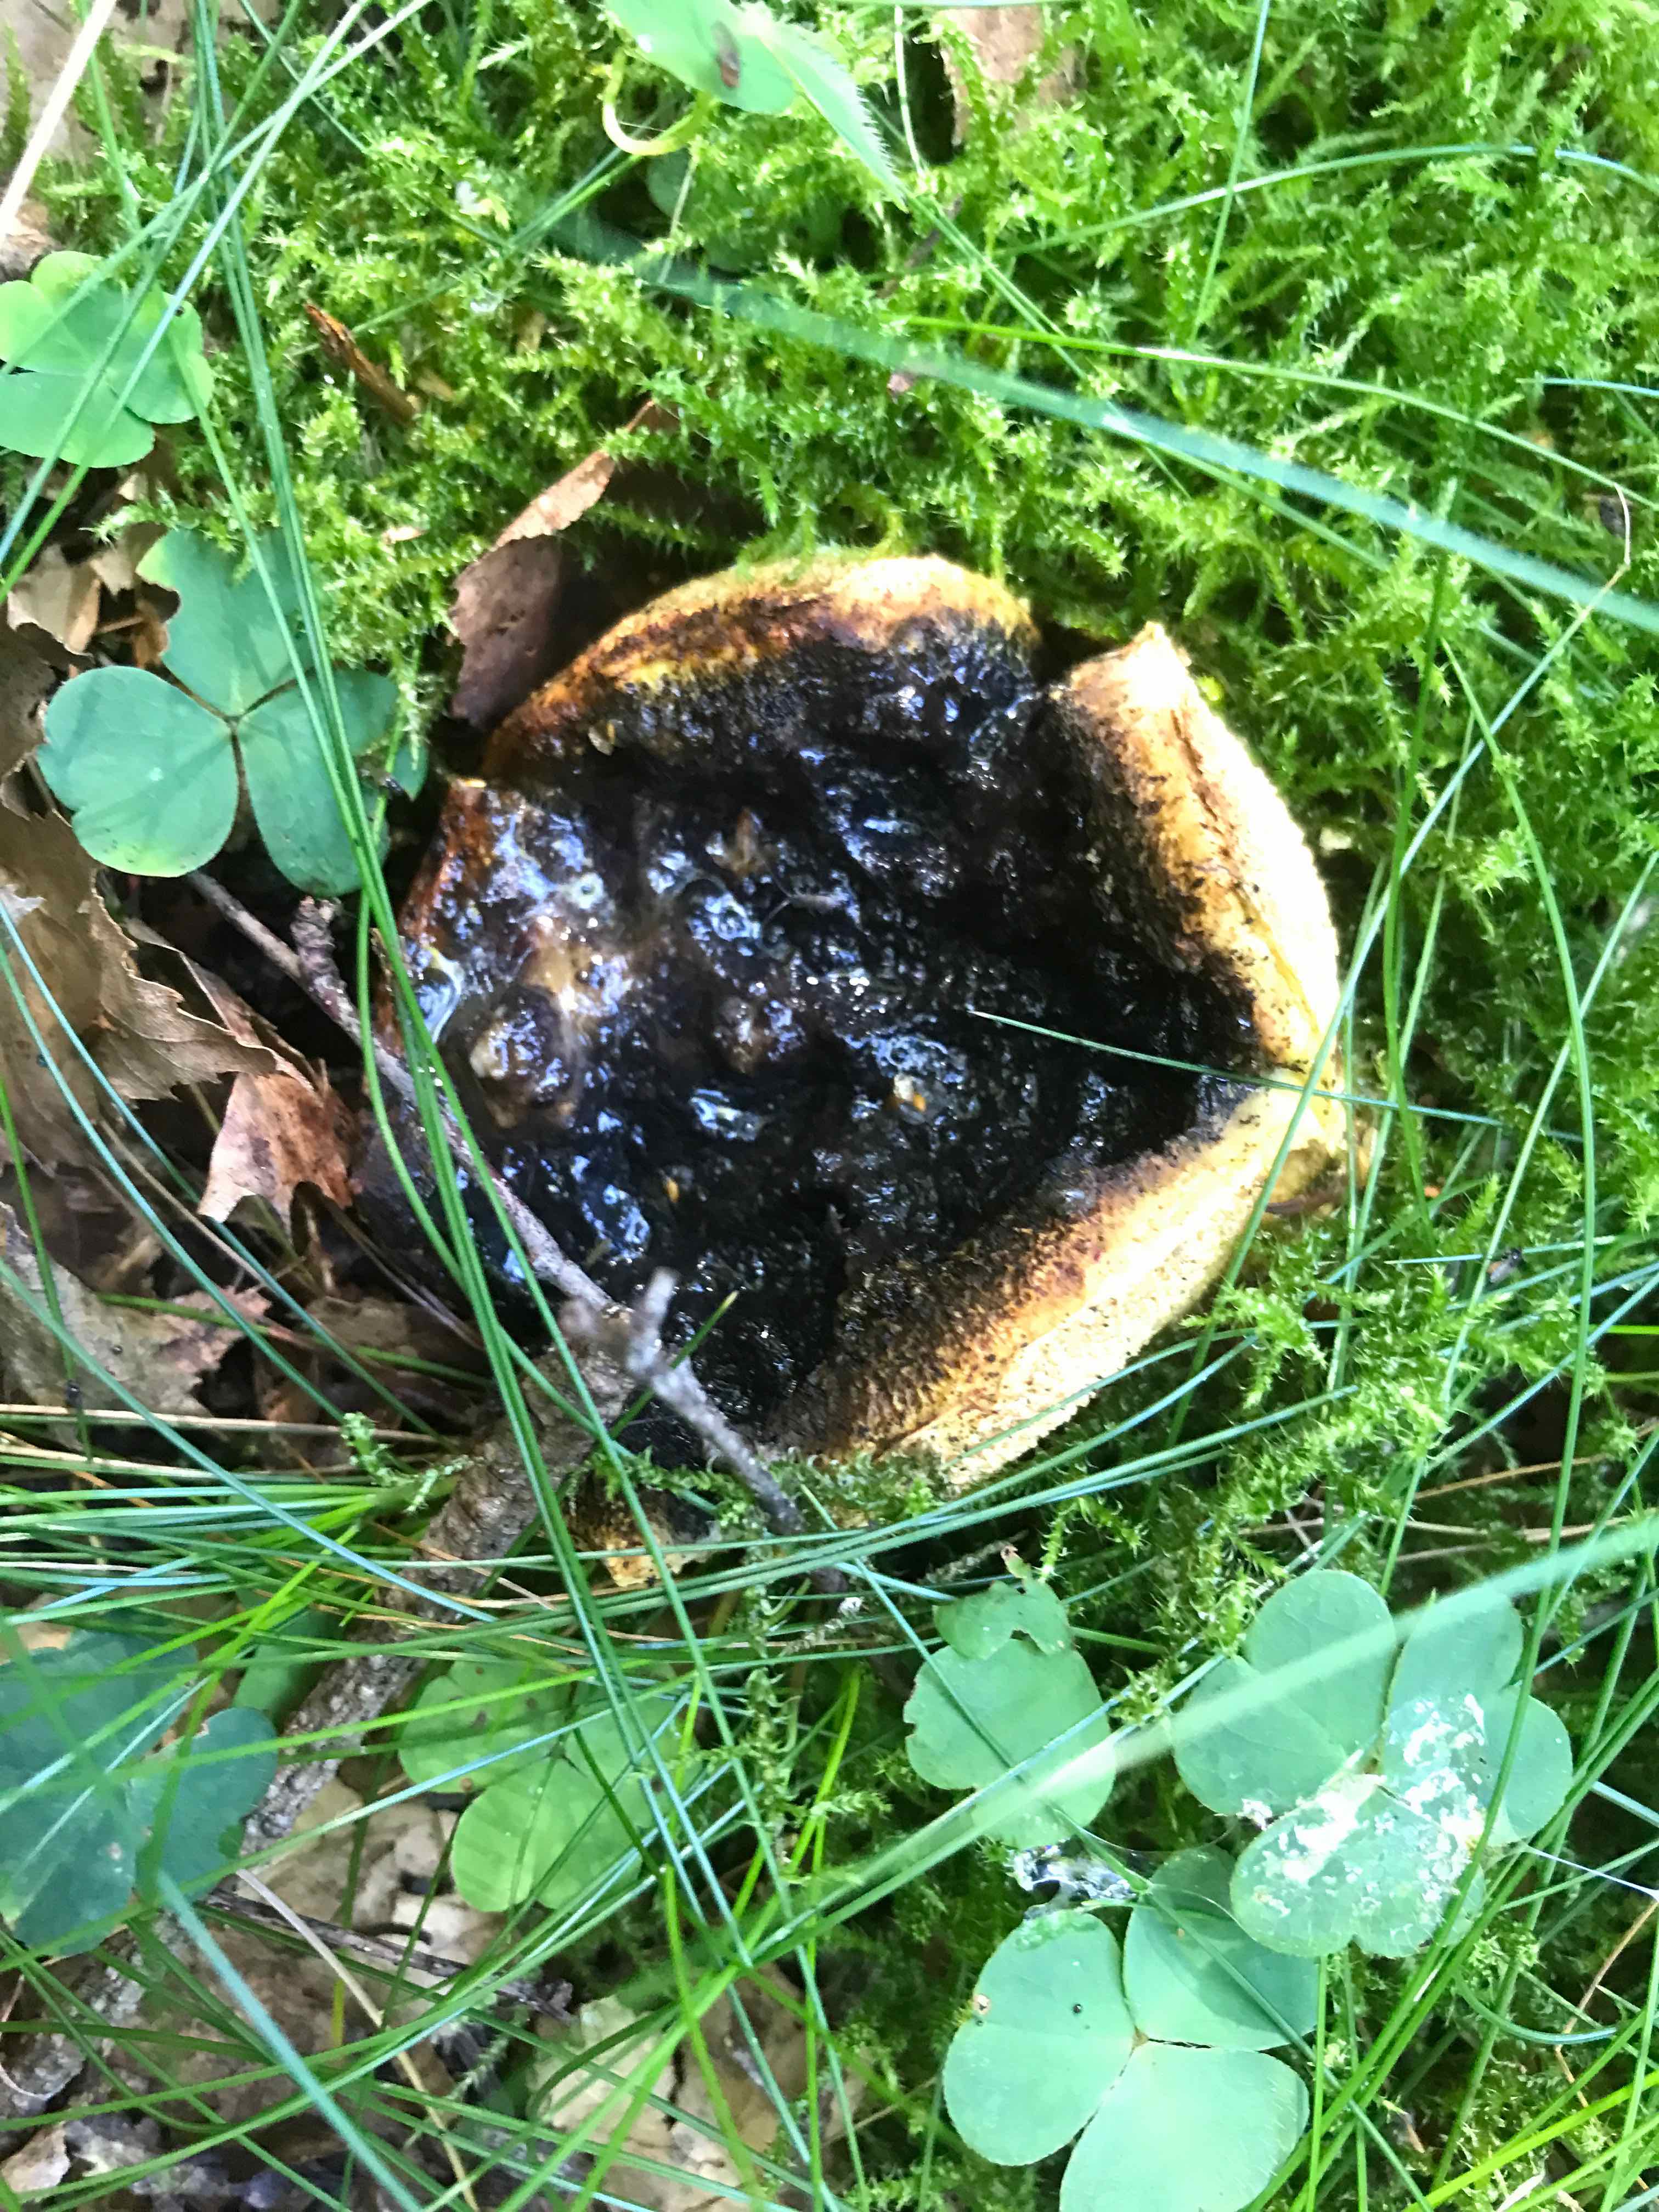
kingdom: Fungi
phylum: Basidiomycota
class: Agaricomycetes
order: Boletales
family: Sclerodermataceae
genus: Scleroderma
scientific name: Scleroderma citrinum
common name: almindelig bruskbold
